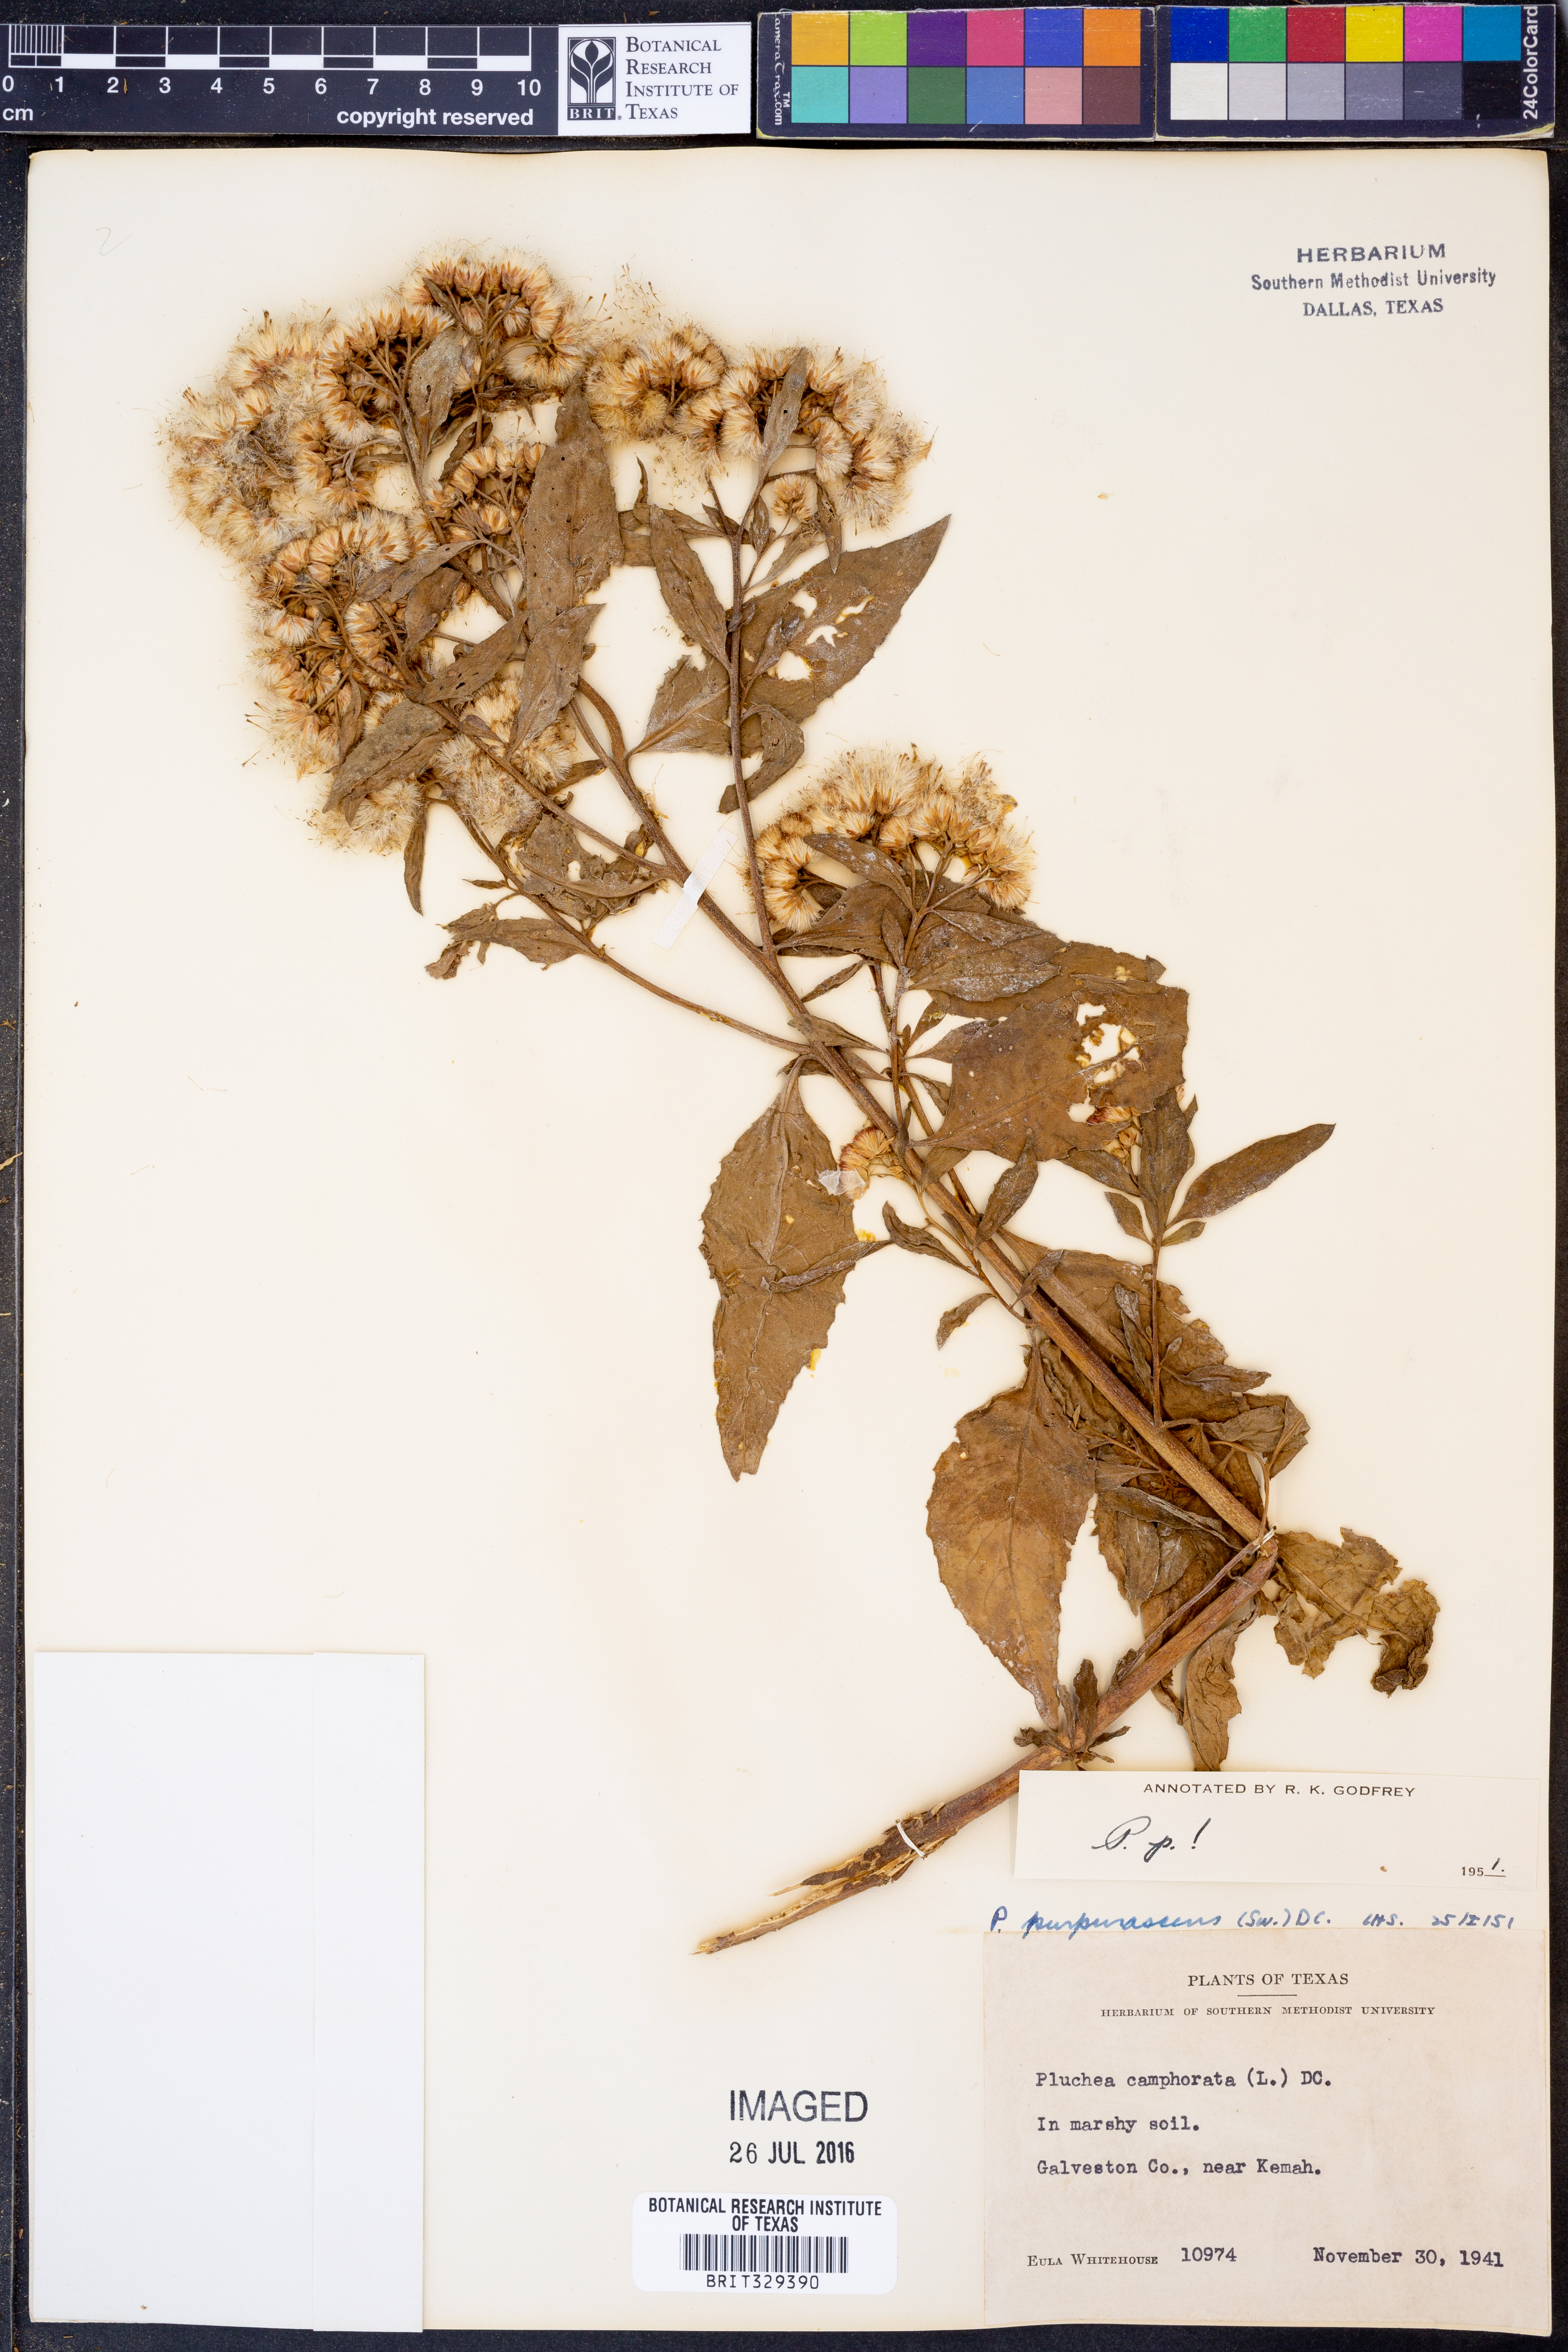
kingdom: Plantae
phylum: Tracheophyta
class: Magnoliopsida
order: Asterales
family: Asteraceae
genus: Pluchea
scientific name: Pluchea odorata
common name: Saltmarsh fleabane
